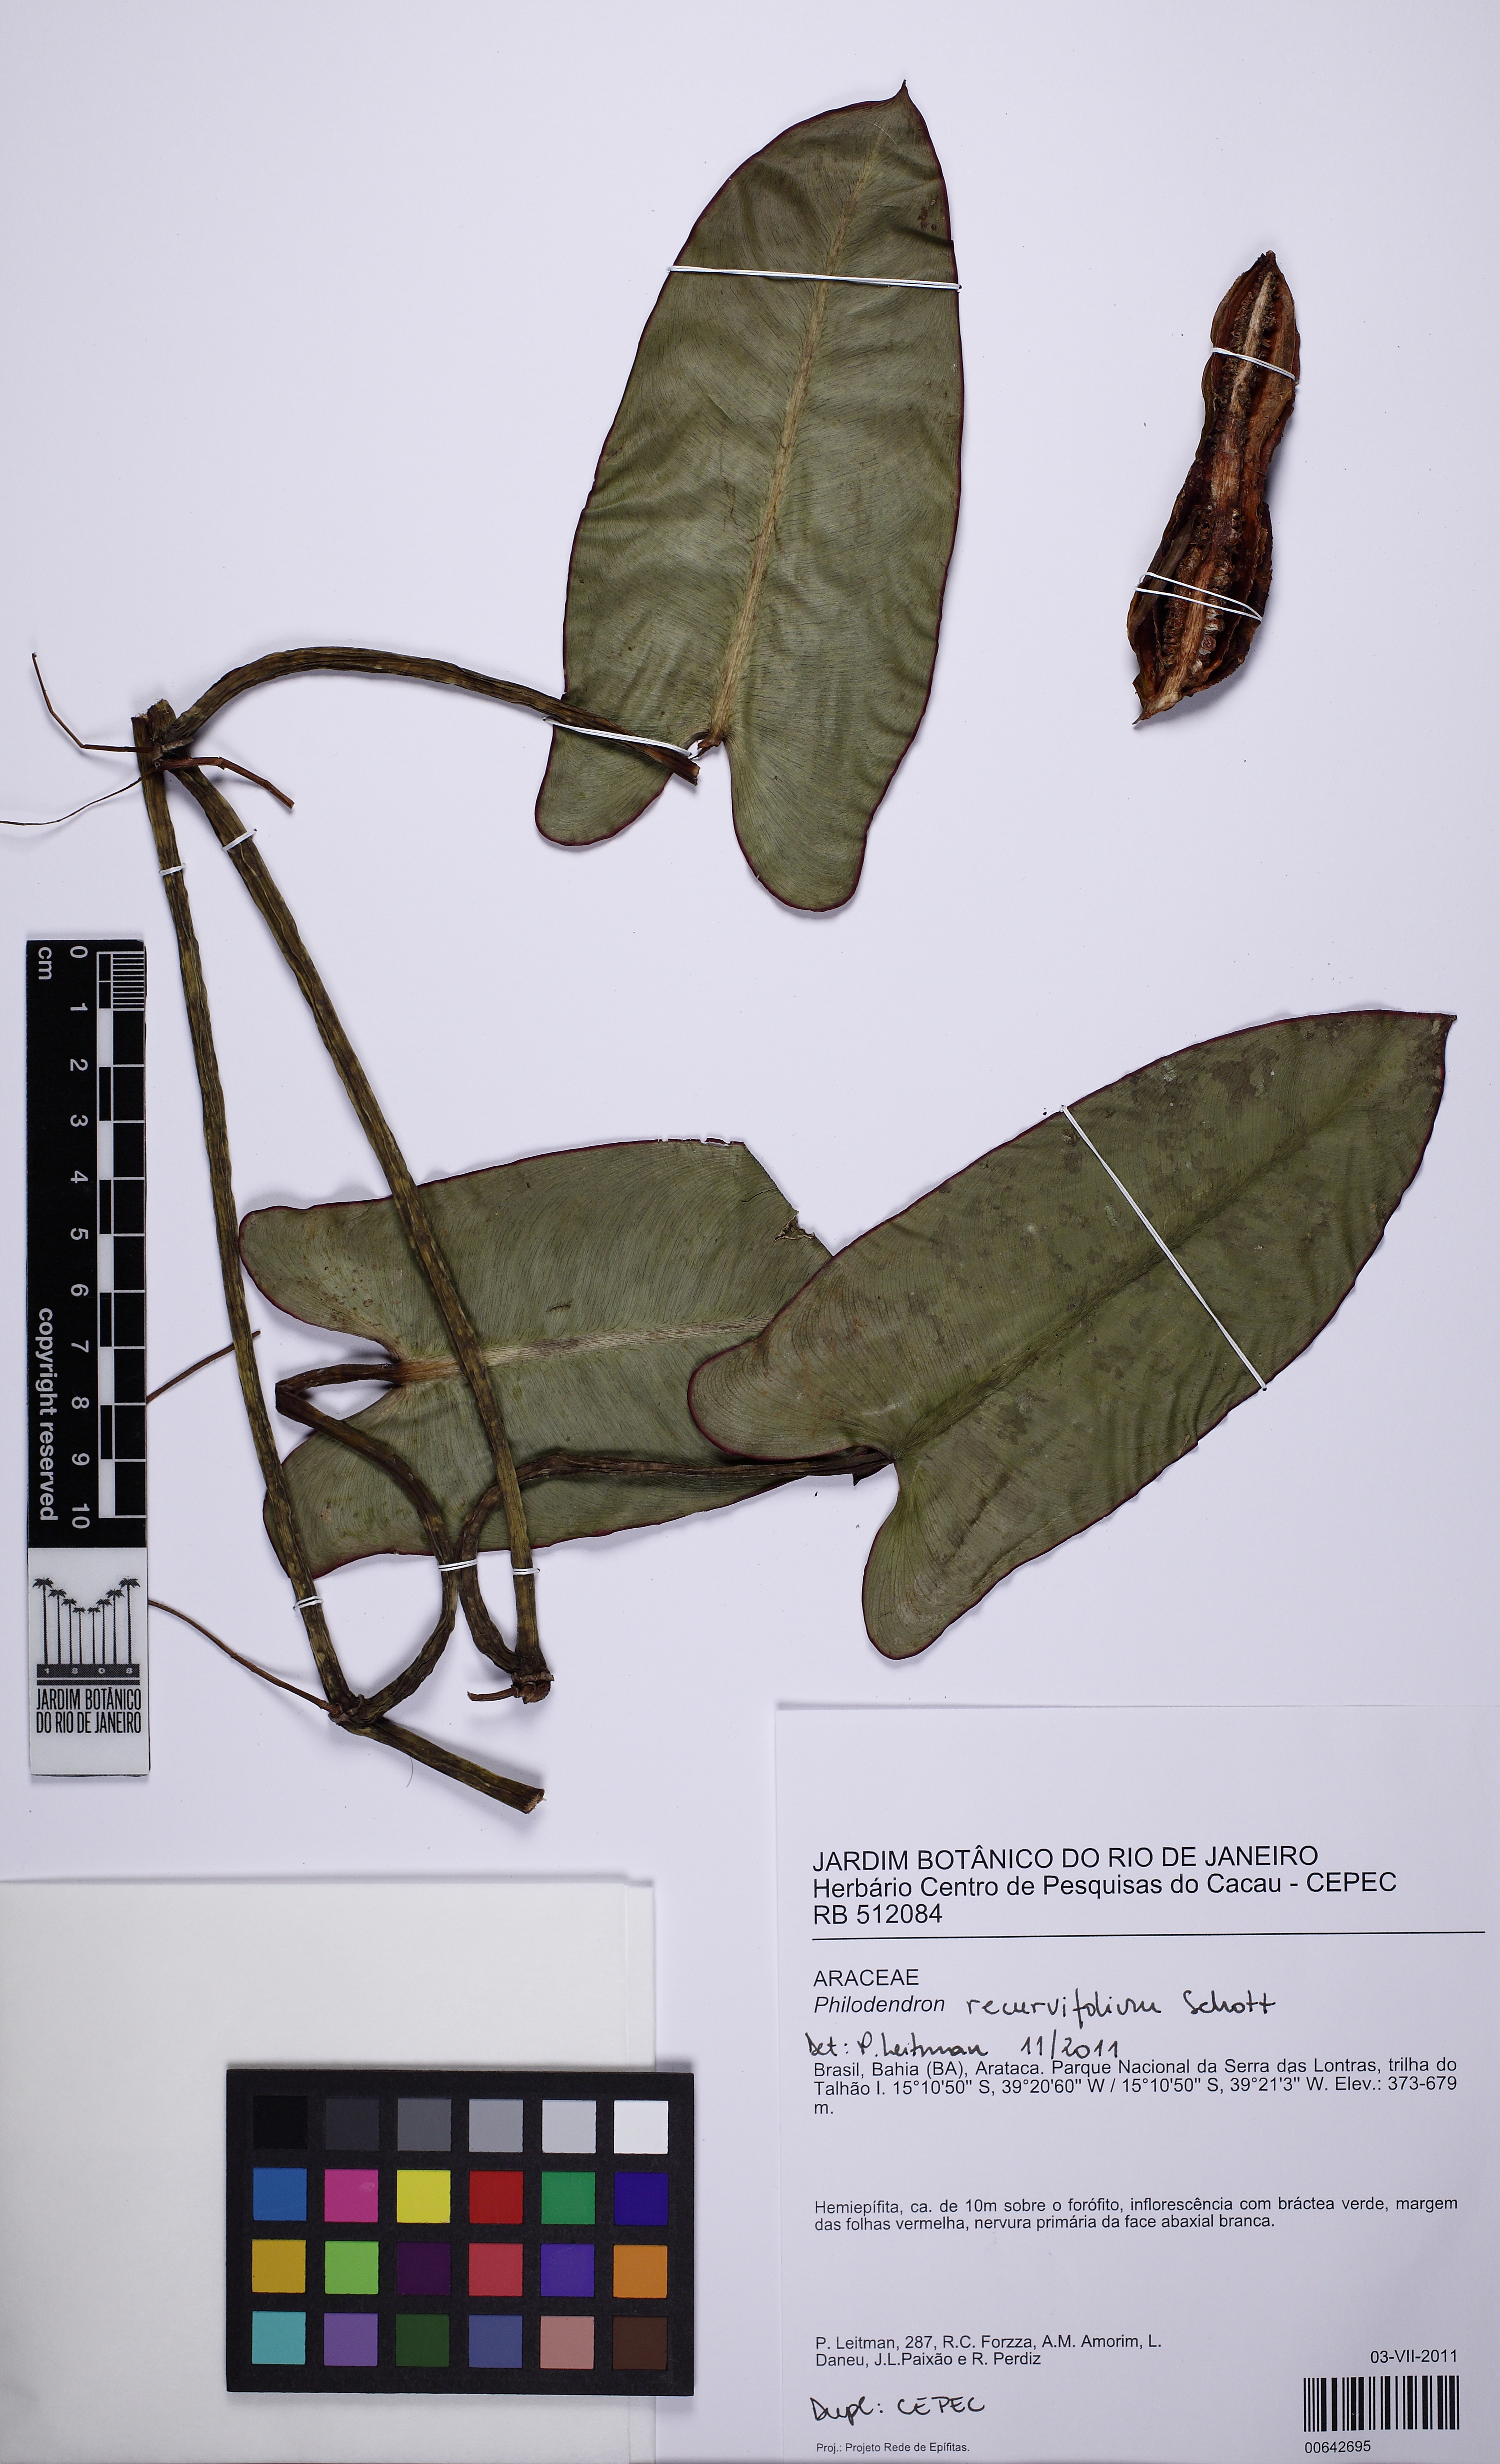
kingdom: Plantae
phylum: Tracheophyta
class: Liliopsida
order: Alismatales
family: Araceae
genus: Philodendron
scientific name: Philodendron recurvifolium
